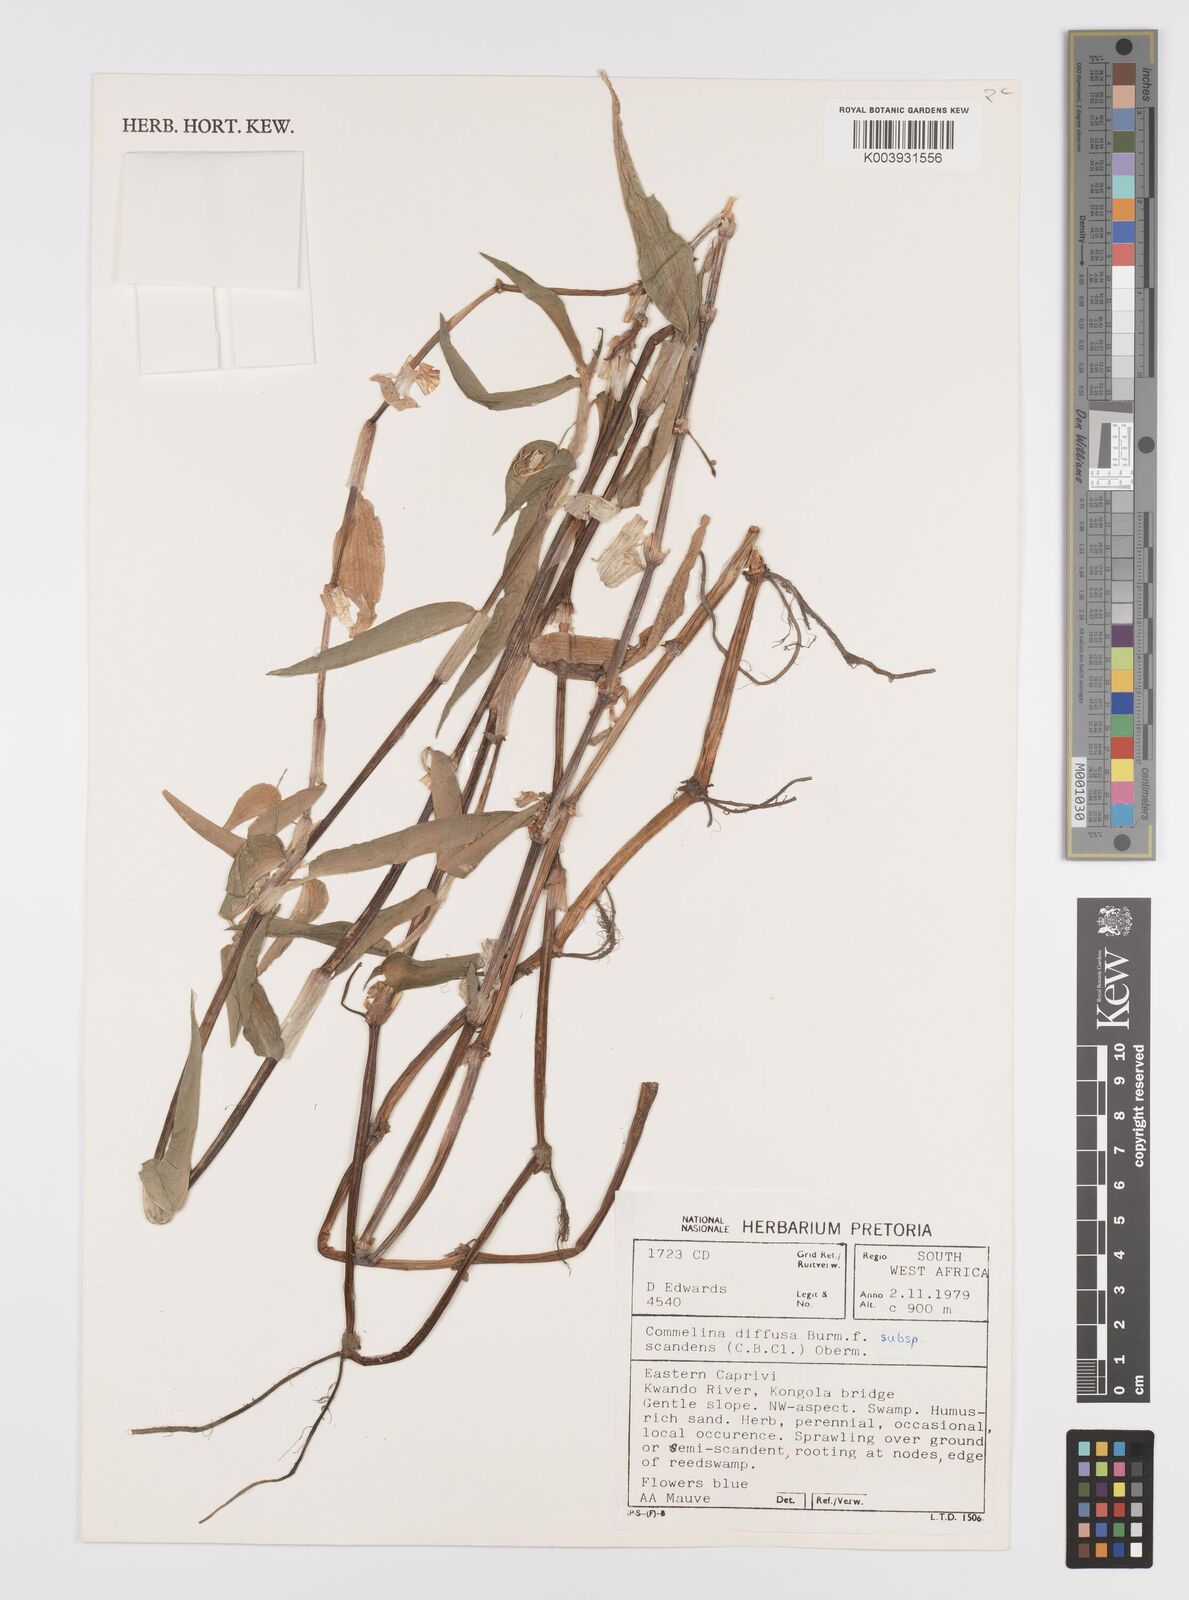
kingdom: Plantae
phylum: Tracheophyta
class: Liliopsida
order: Commelinales
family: Commelinaceae
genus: Commelina
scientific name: Commelina scandens
